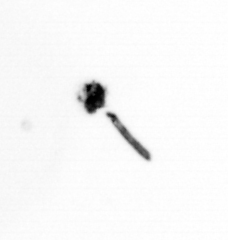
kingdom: Animalia
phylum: Arthropoda
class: Copepoda
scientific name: Copepoda
